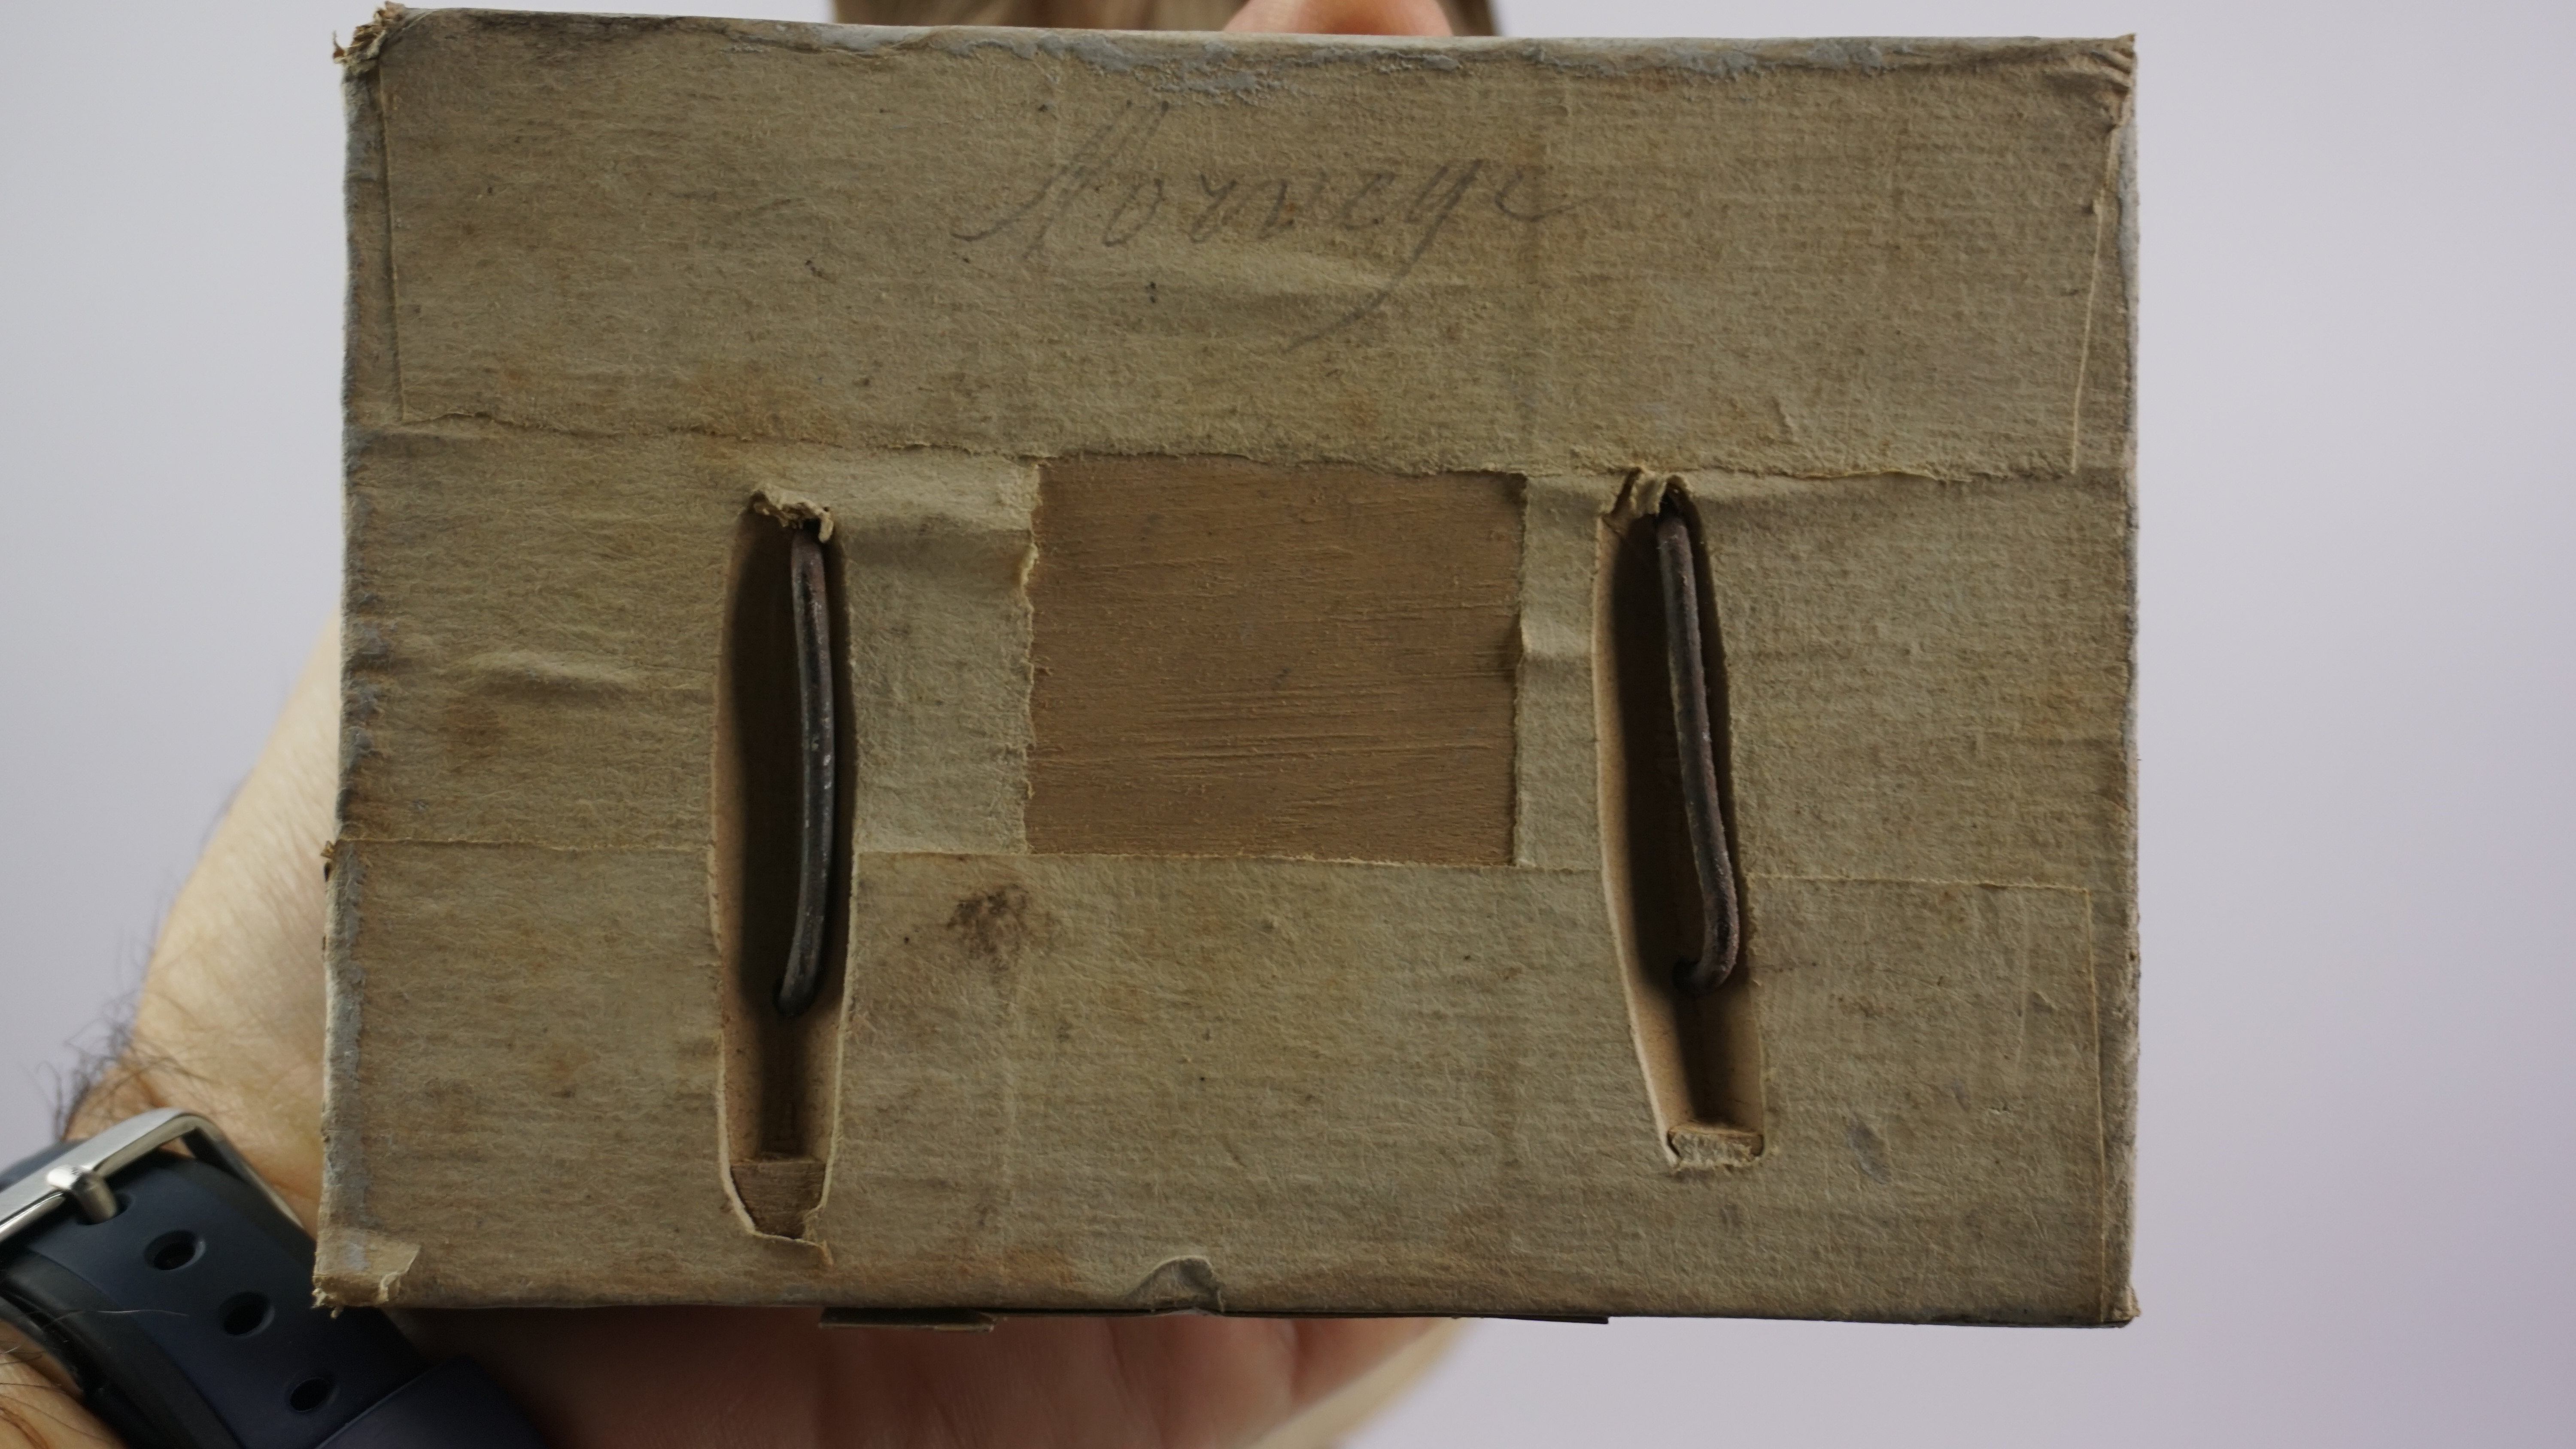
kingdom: Animalia
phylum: Chordata
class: Aves
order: Charadriiformes
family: Stercorariidae
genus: Stercorarius
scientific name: Stercorarius parasiticus
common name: Parasitic jaeger
